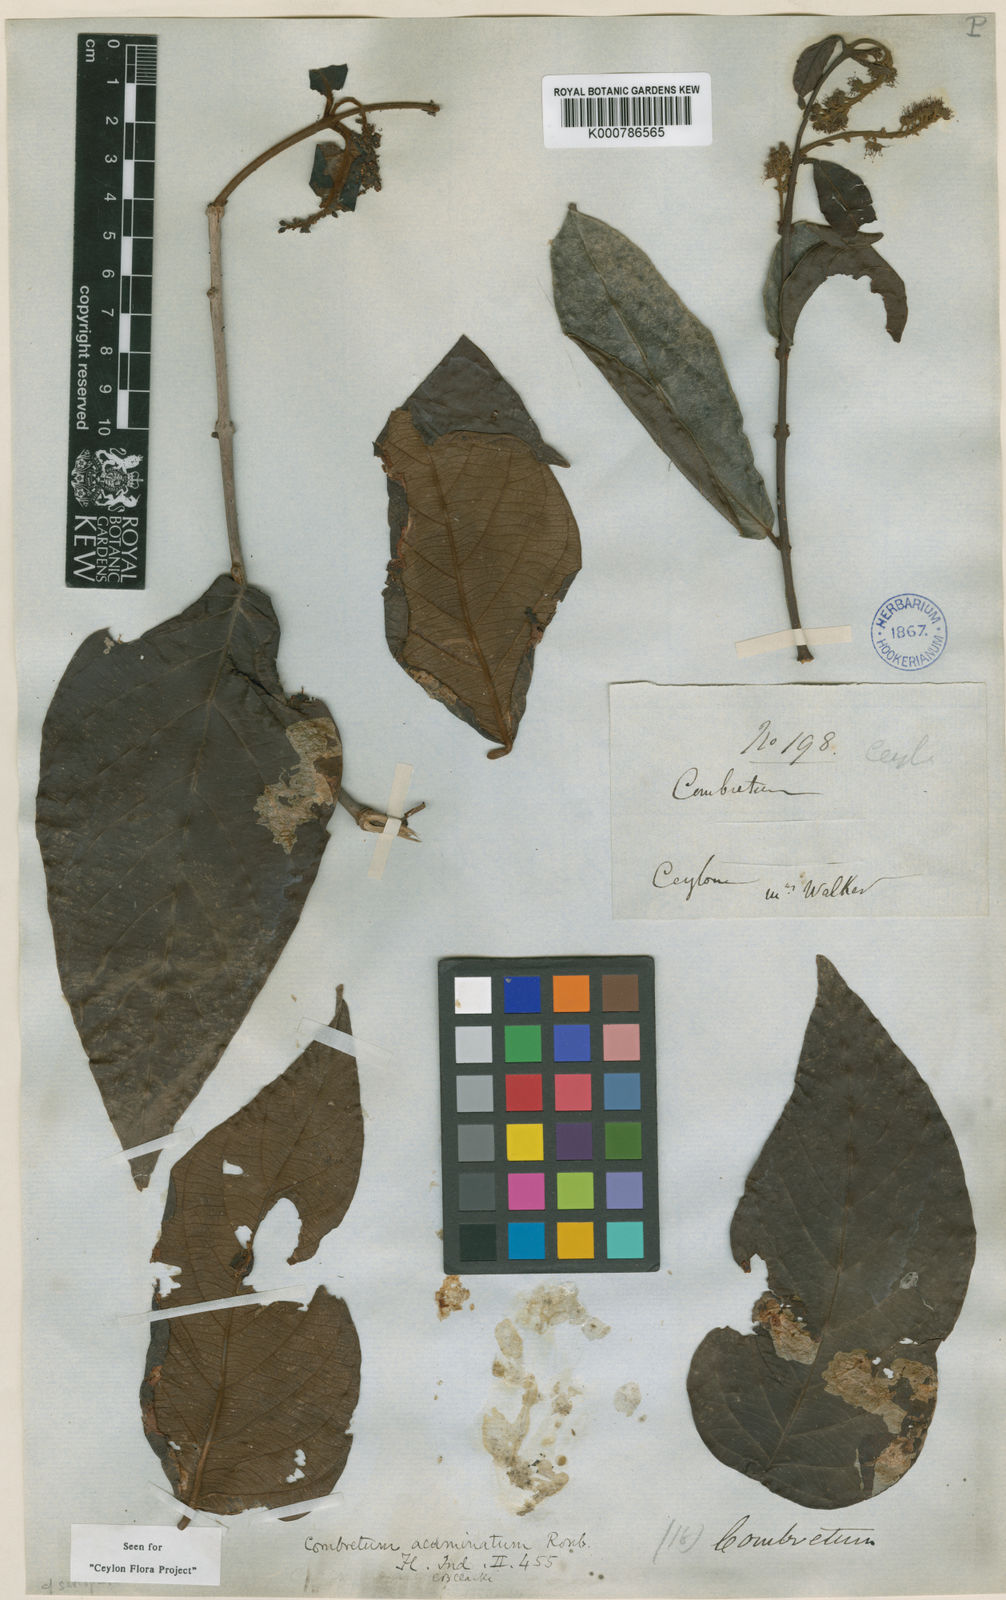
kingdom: Plantae
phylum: Tracheophyta
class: Magnoliopsida
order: Myrtales
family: Combretaceae
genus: Combretum
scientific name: Combretum acuminatum
